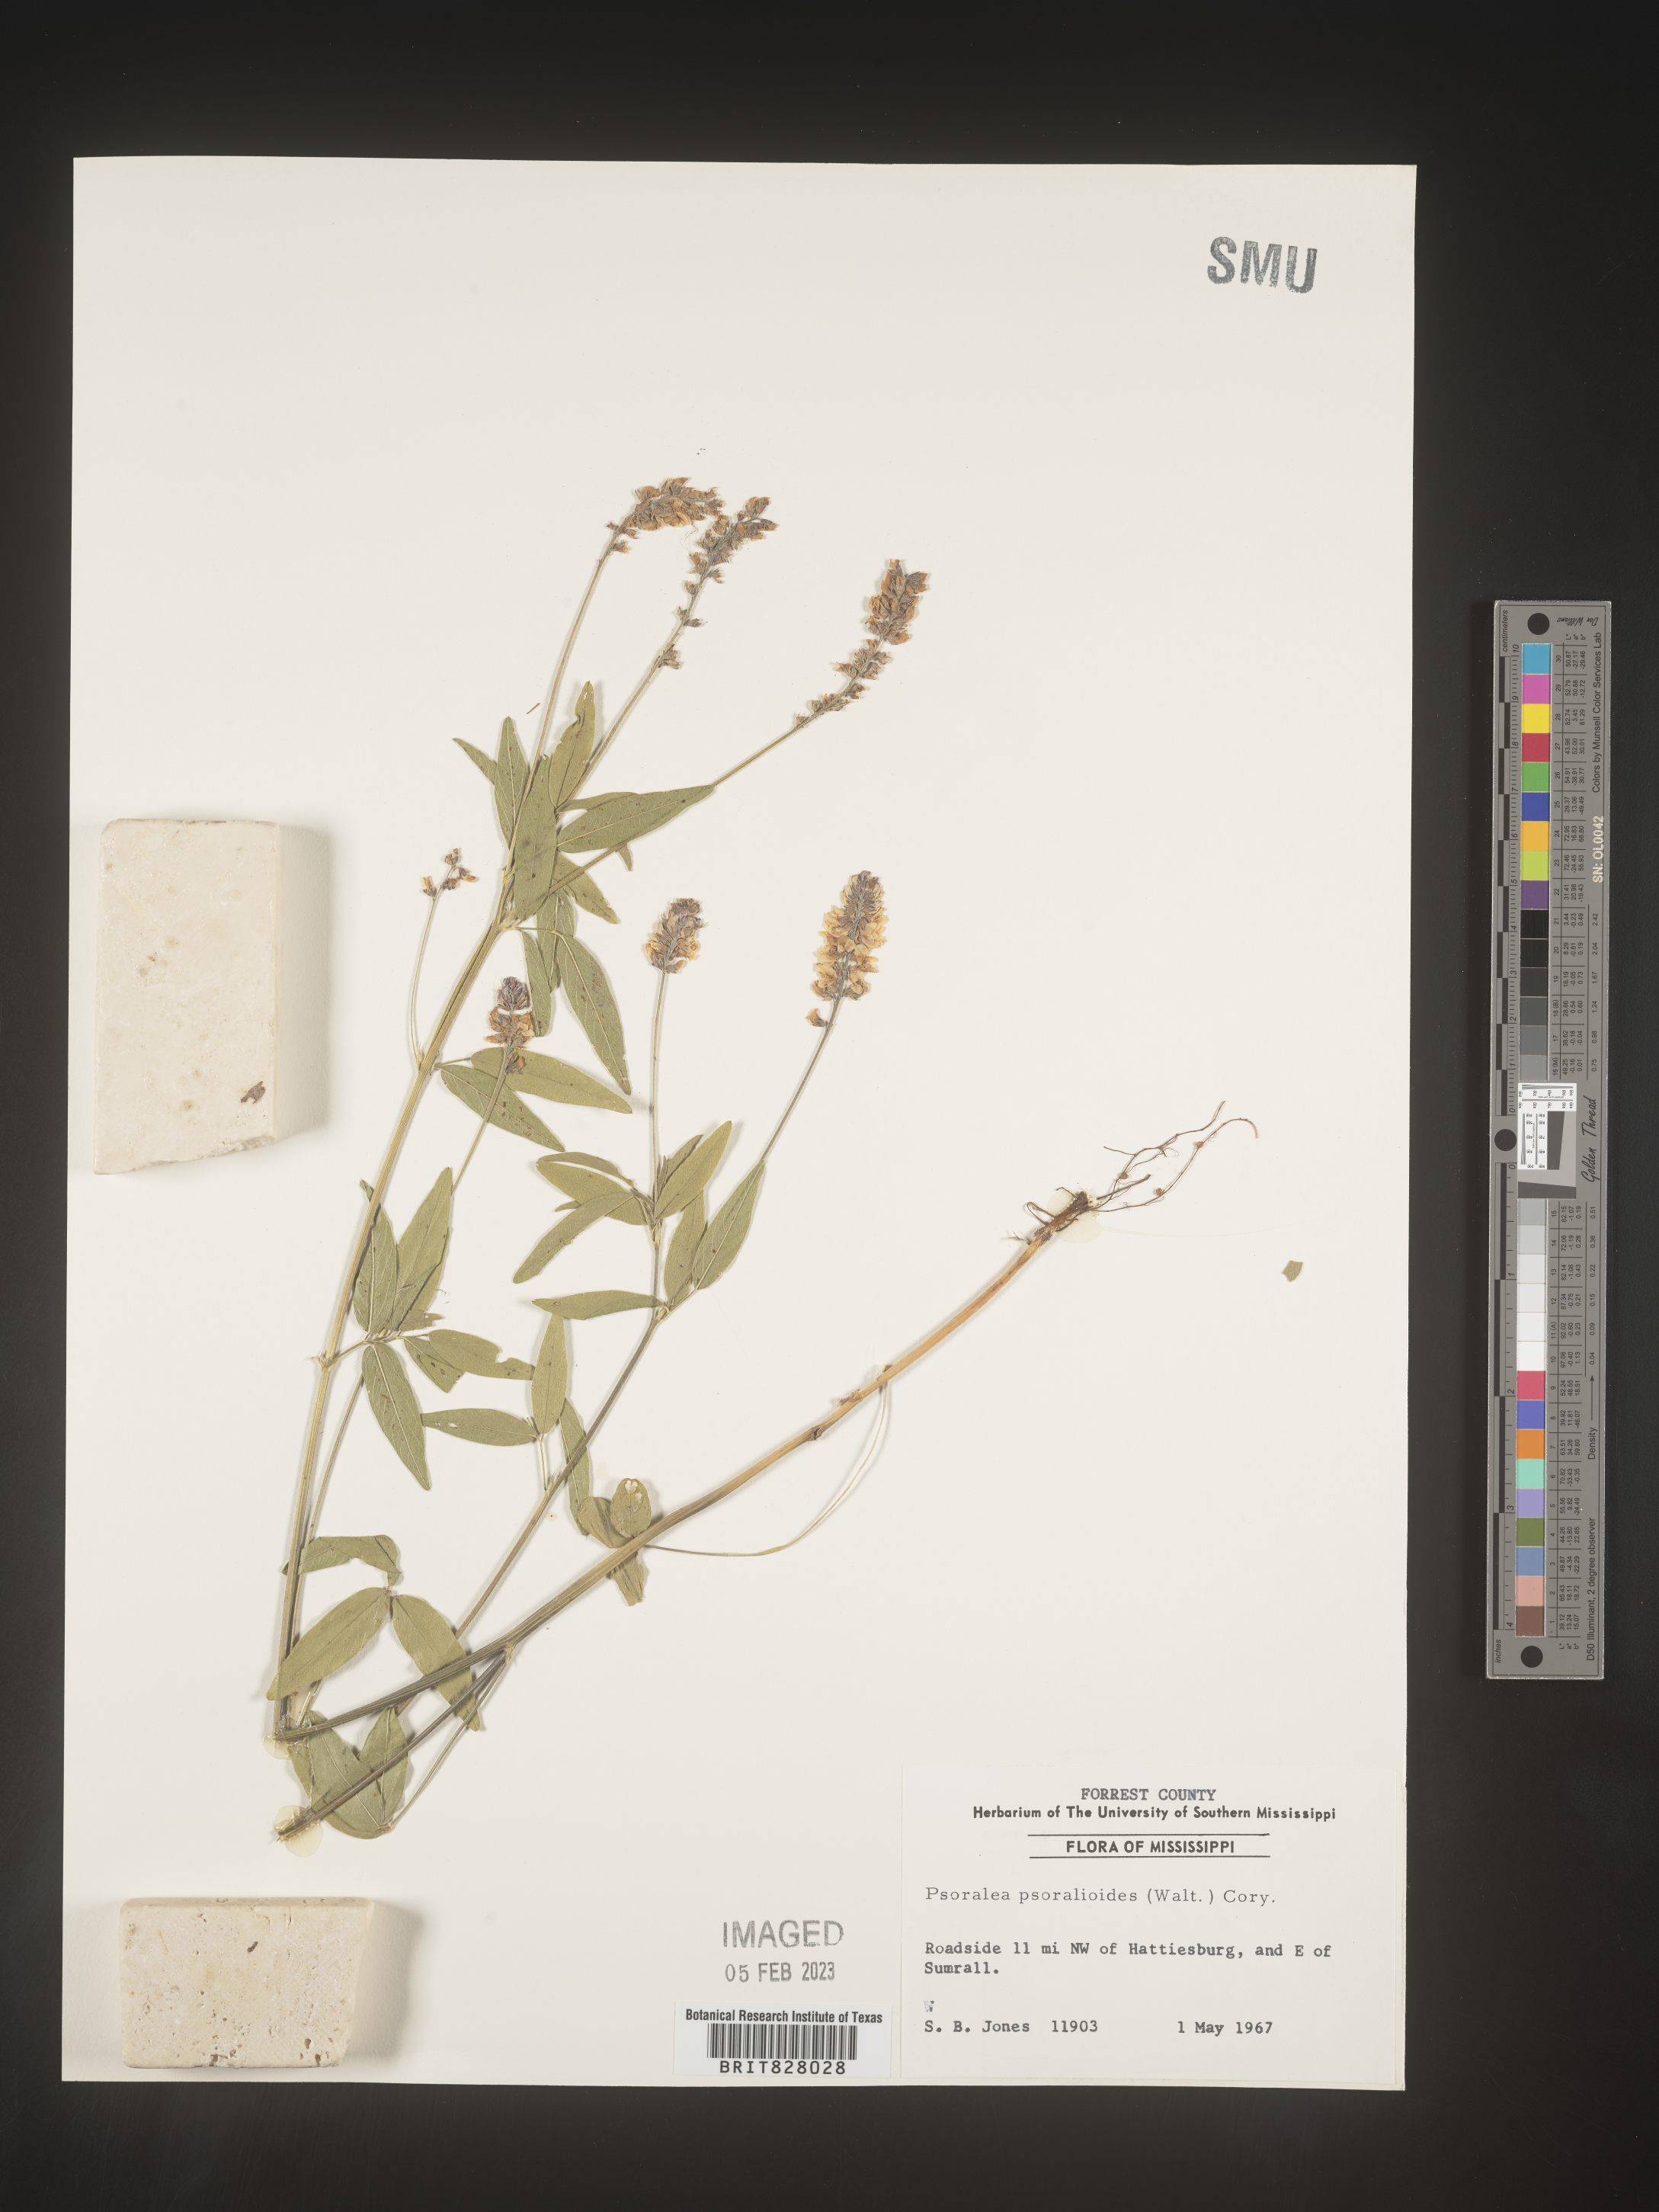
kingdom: Plantae
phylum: Tracheophyta
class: Magnoliopsida
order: Fabales
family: Fabaceae
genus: Orbexilum
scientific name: Orbexilum pedunculatum
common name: Sampson's snakeroot
